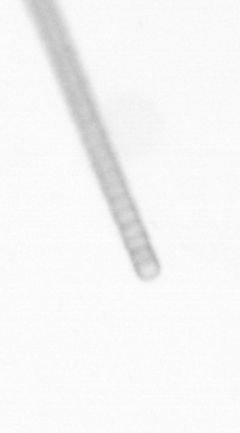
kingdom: Chromista
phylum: Ochrophyta
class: Bacillariophyceae
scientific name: Bacillariophyceae
